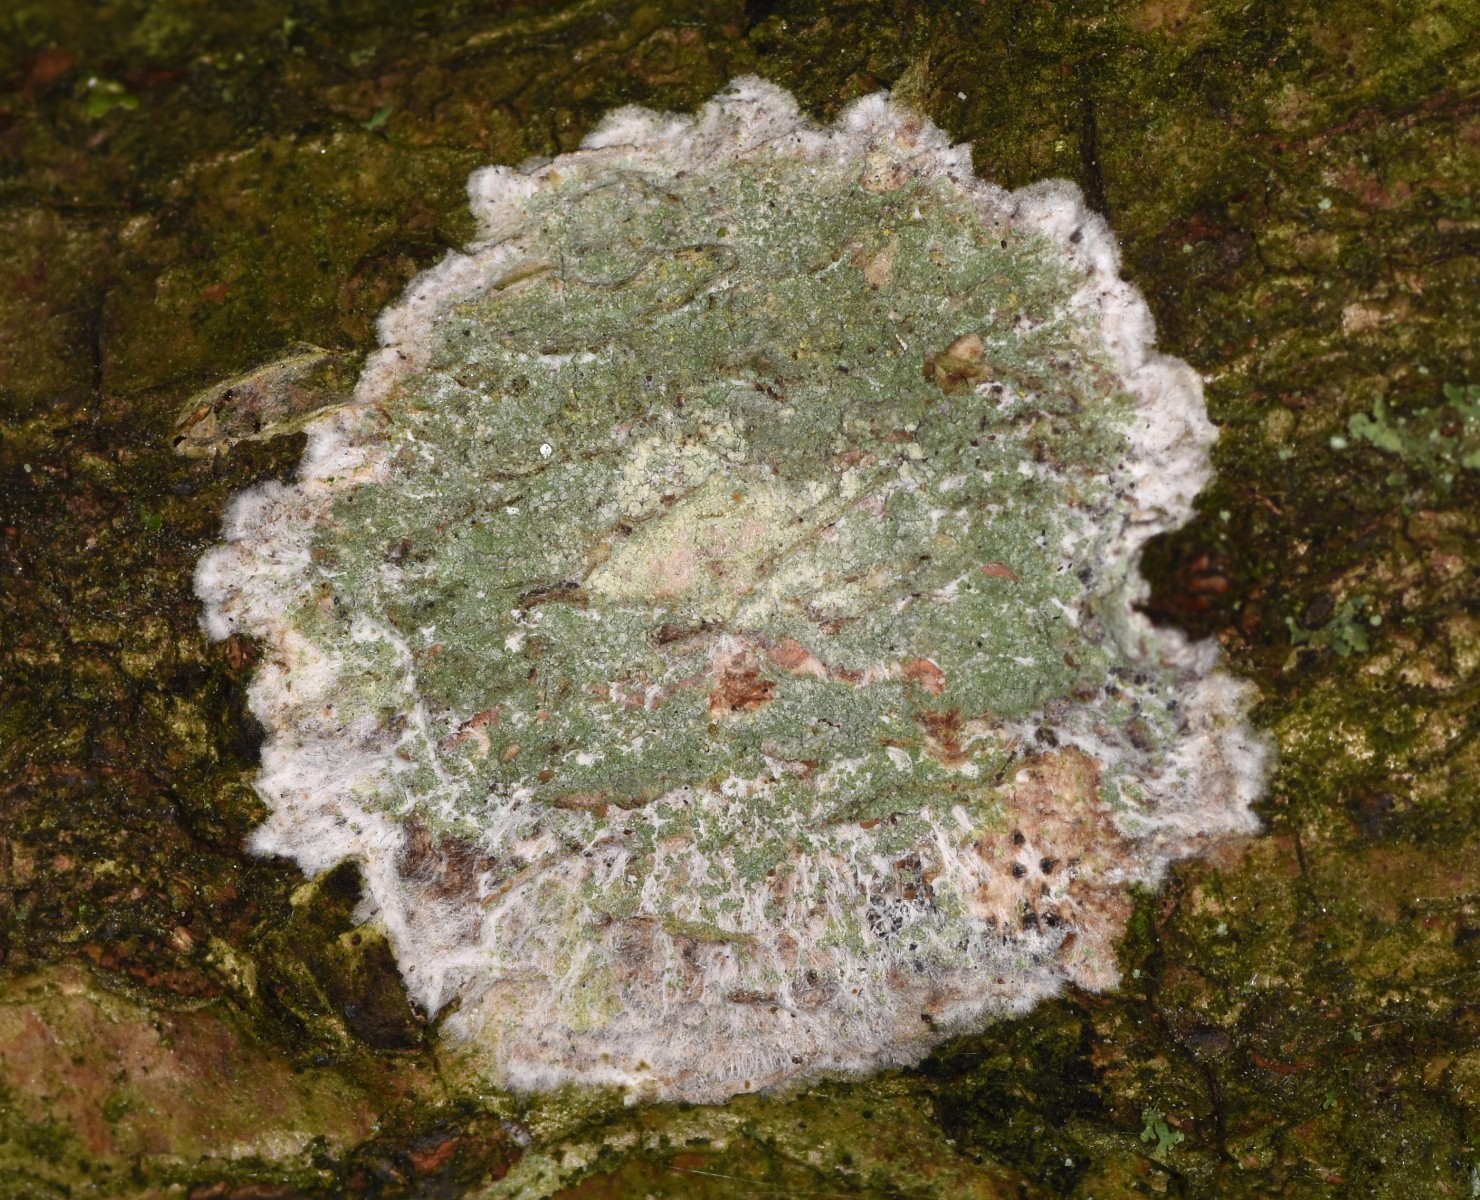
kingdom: Fungi
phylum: Ascomycota
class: Lecanoromycetes
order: Ostropales
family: Phlyctidaceae
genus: Phlyctis
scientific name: Phlyctis argena
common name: almindelig sølvlav
